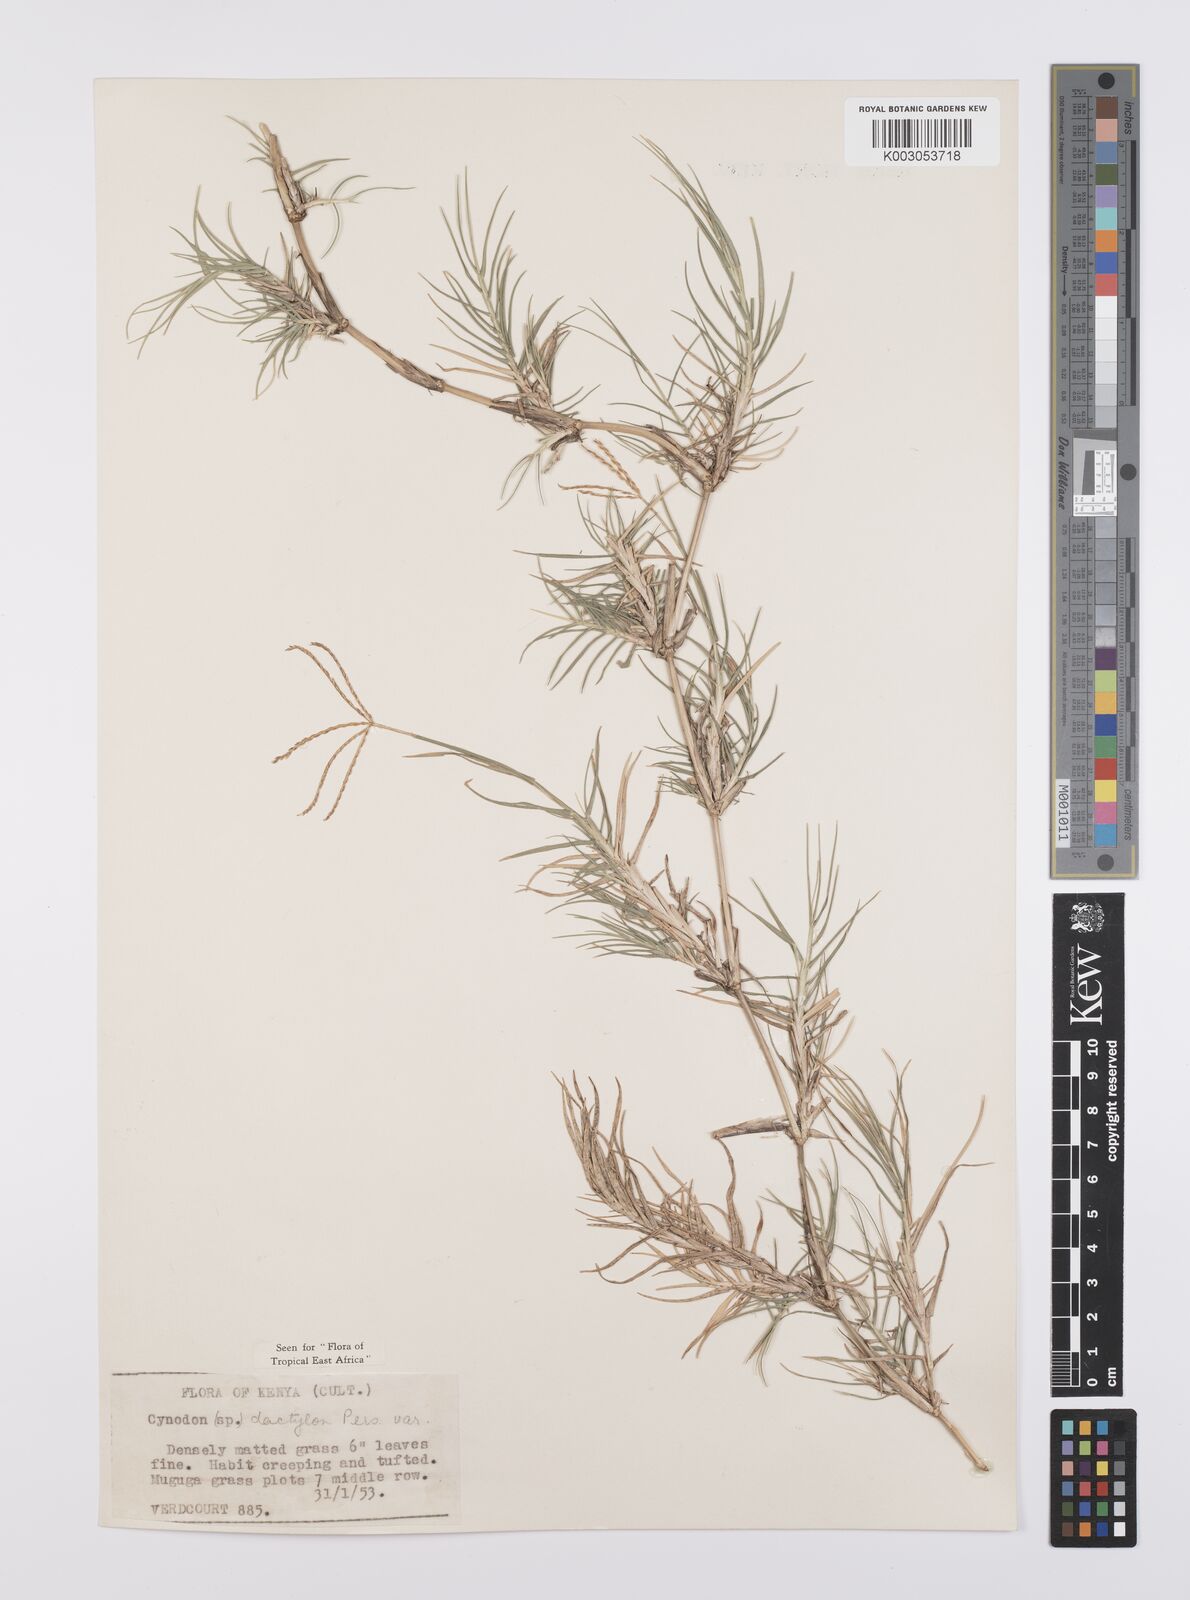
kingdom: Plantae
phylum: Tracheophyta
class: Liliopsida
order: Poales
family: Poaceae
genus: Cynodon
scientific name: Cynodon dactylon
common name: Bermuda grass
